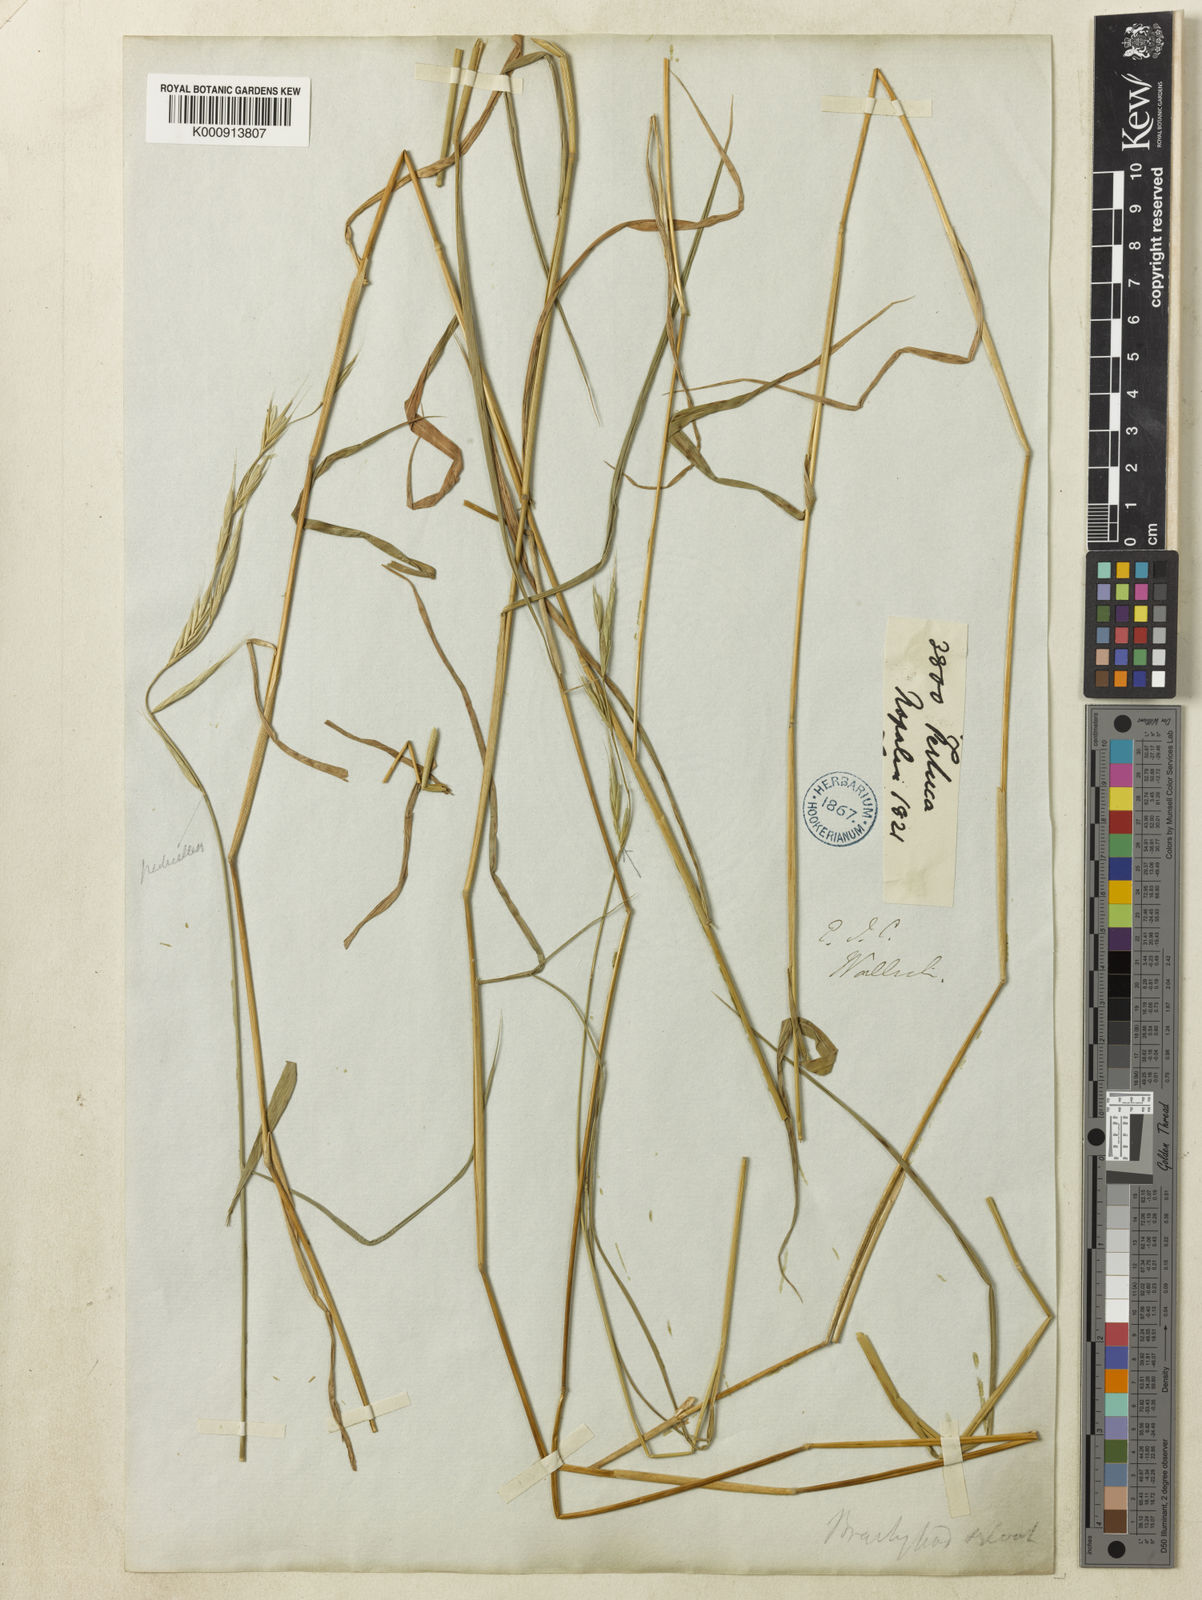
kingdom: Plantae
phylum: Tracheophyta
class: Liliopsida
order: Poales
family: Poaceae
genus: Brachypodium
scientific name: Brachypodium sylvaticum
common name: False-brome
